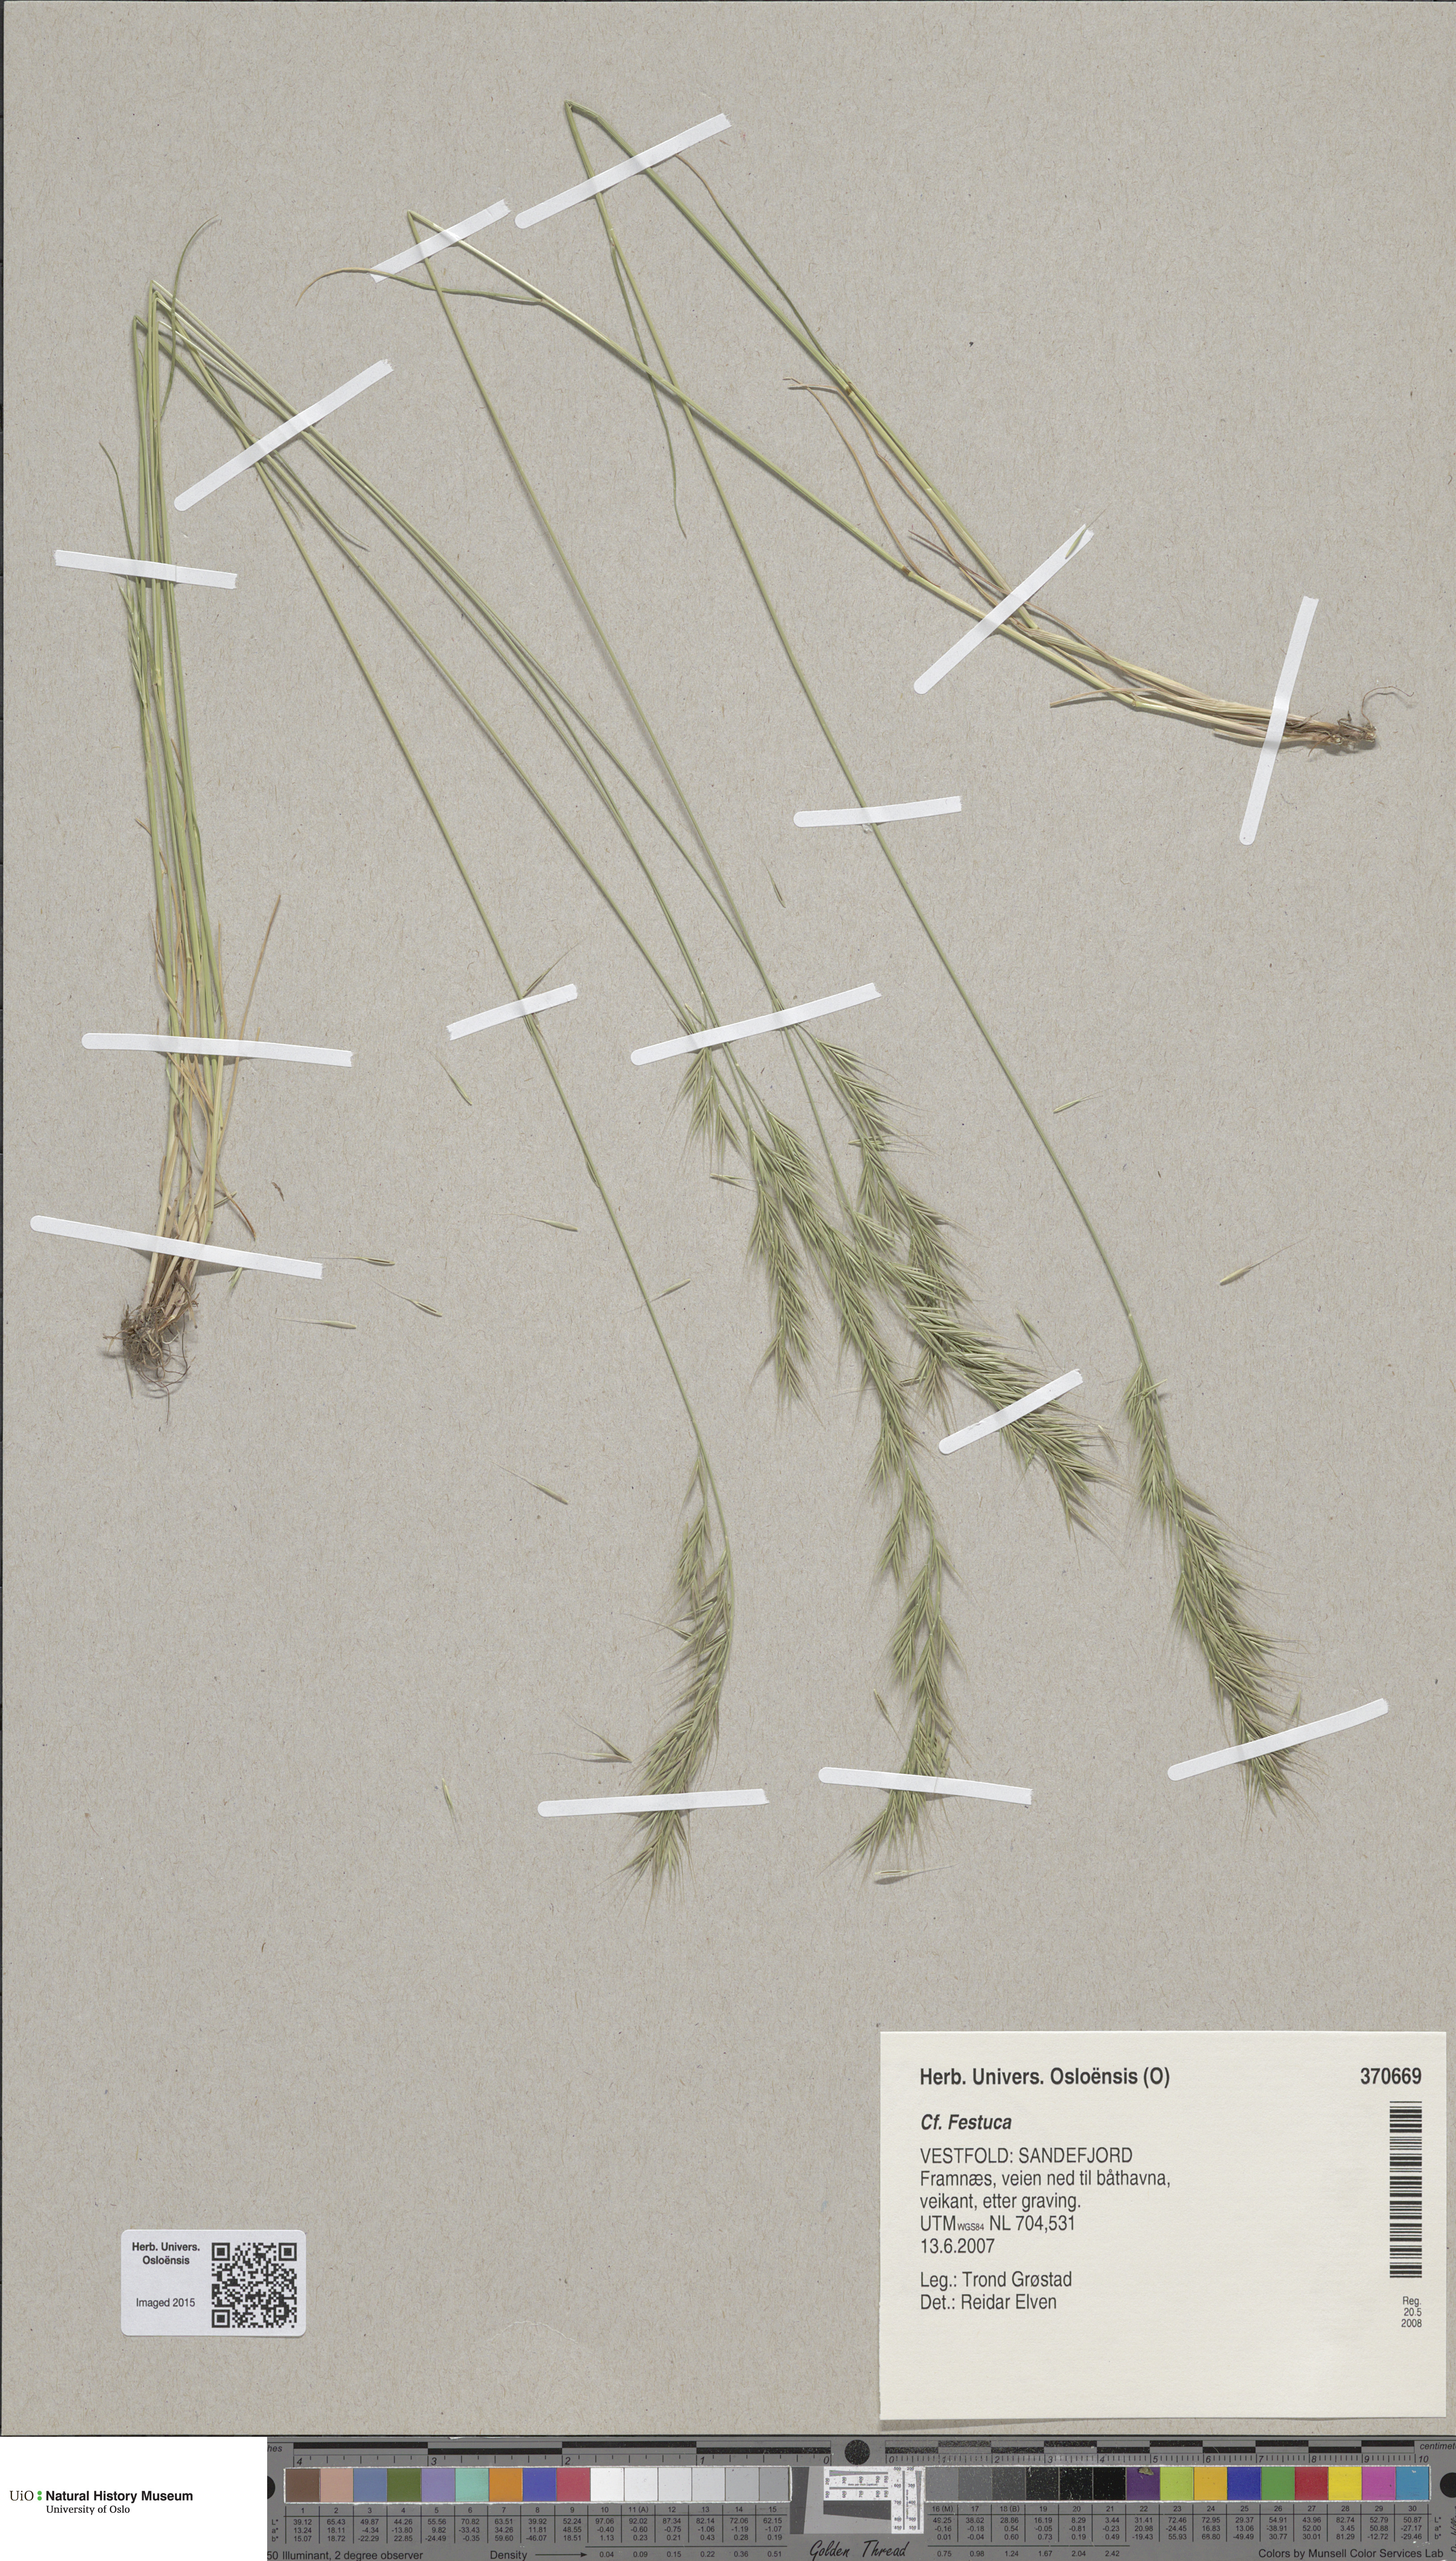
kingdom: Plantae
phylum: Tracheophyta
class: Liliopsida
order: Poales
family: Poaceae
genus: Festuca
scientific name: Festuca bromoides
